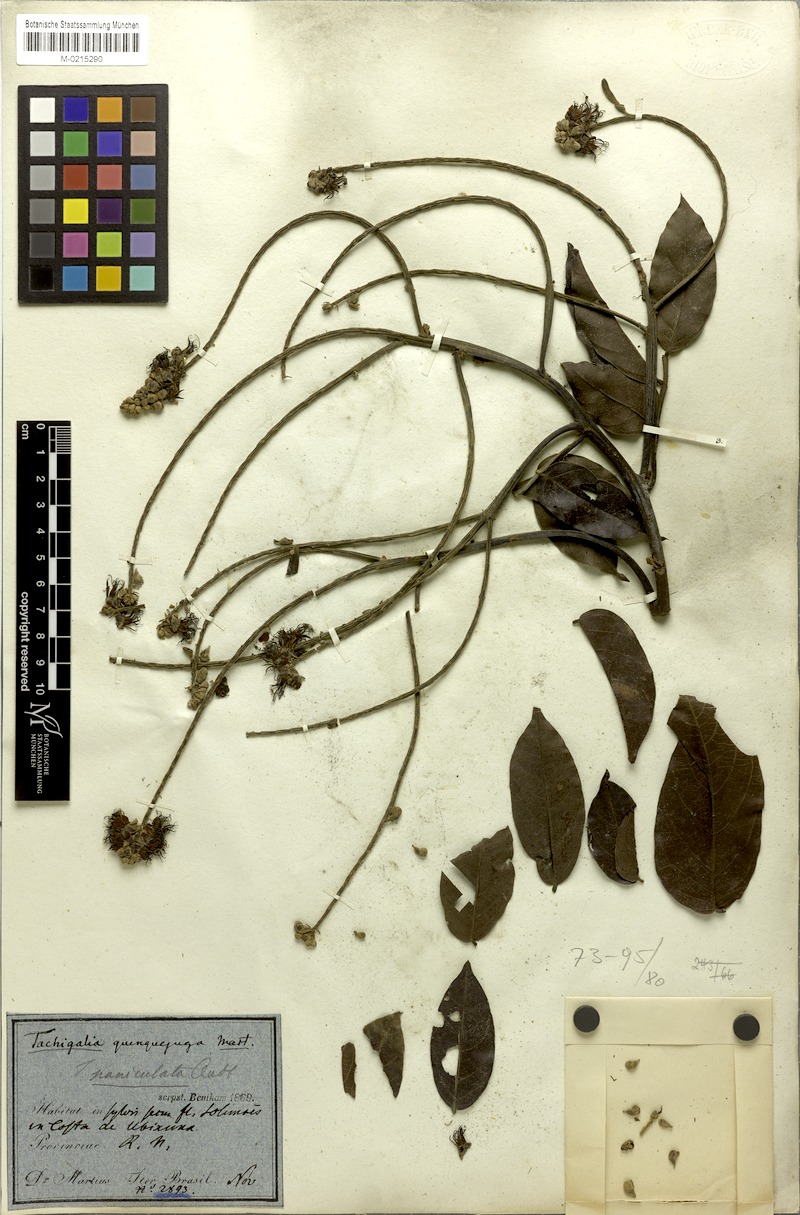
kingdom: Plantae
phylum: Tracheophyta
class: Magnoliopsida
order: Fabales
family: Fabaceae
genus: Tachigali
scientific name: Tachigali paniculata
